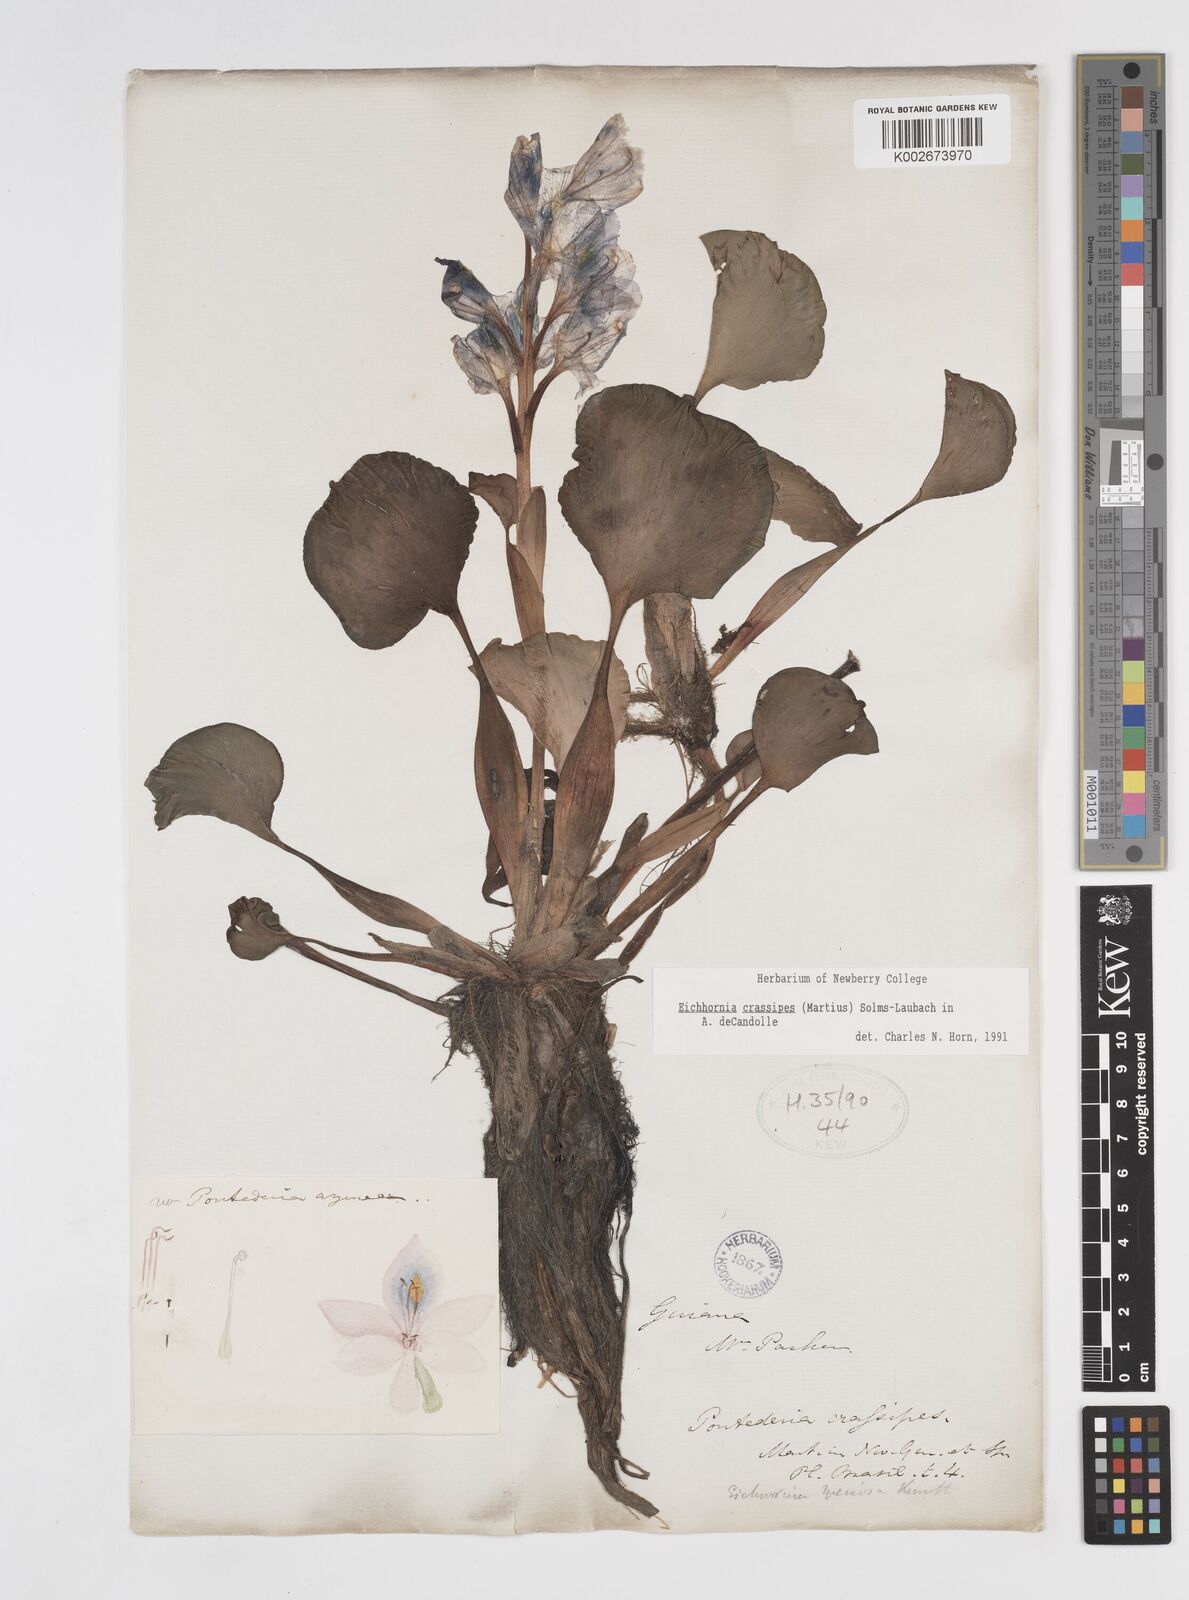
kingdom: Plantae
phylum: Tracheophyta
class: Liliopsida
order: Commelinales
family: Pontederiaceae
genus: Pontederia
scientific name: Pontederia crassipes
